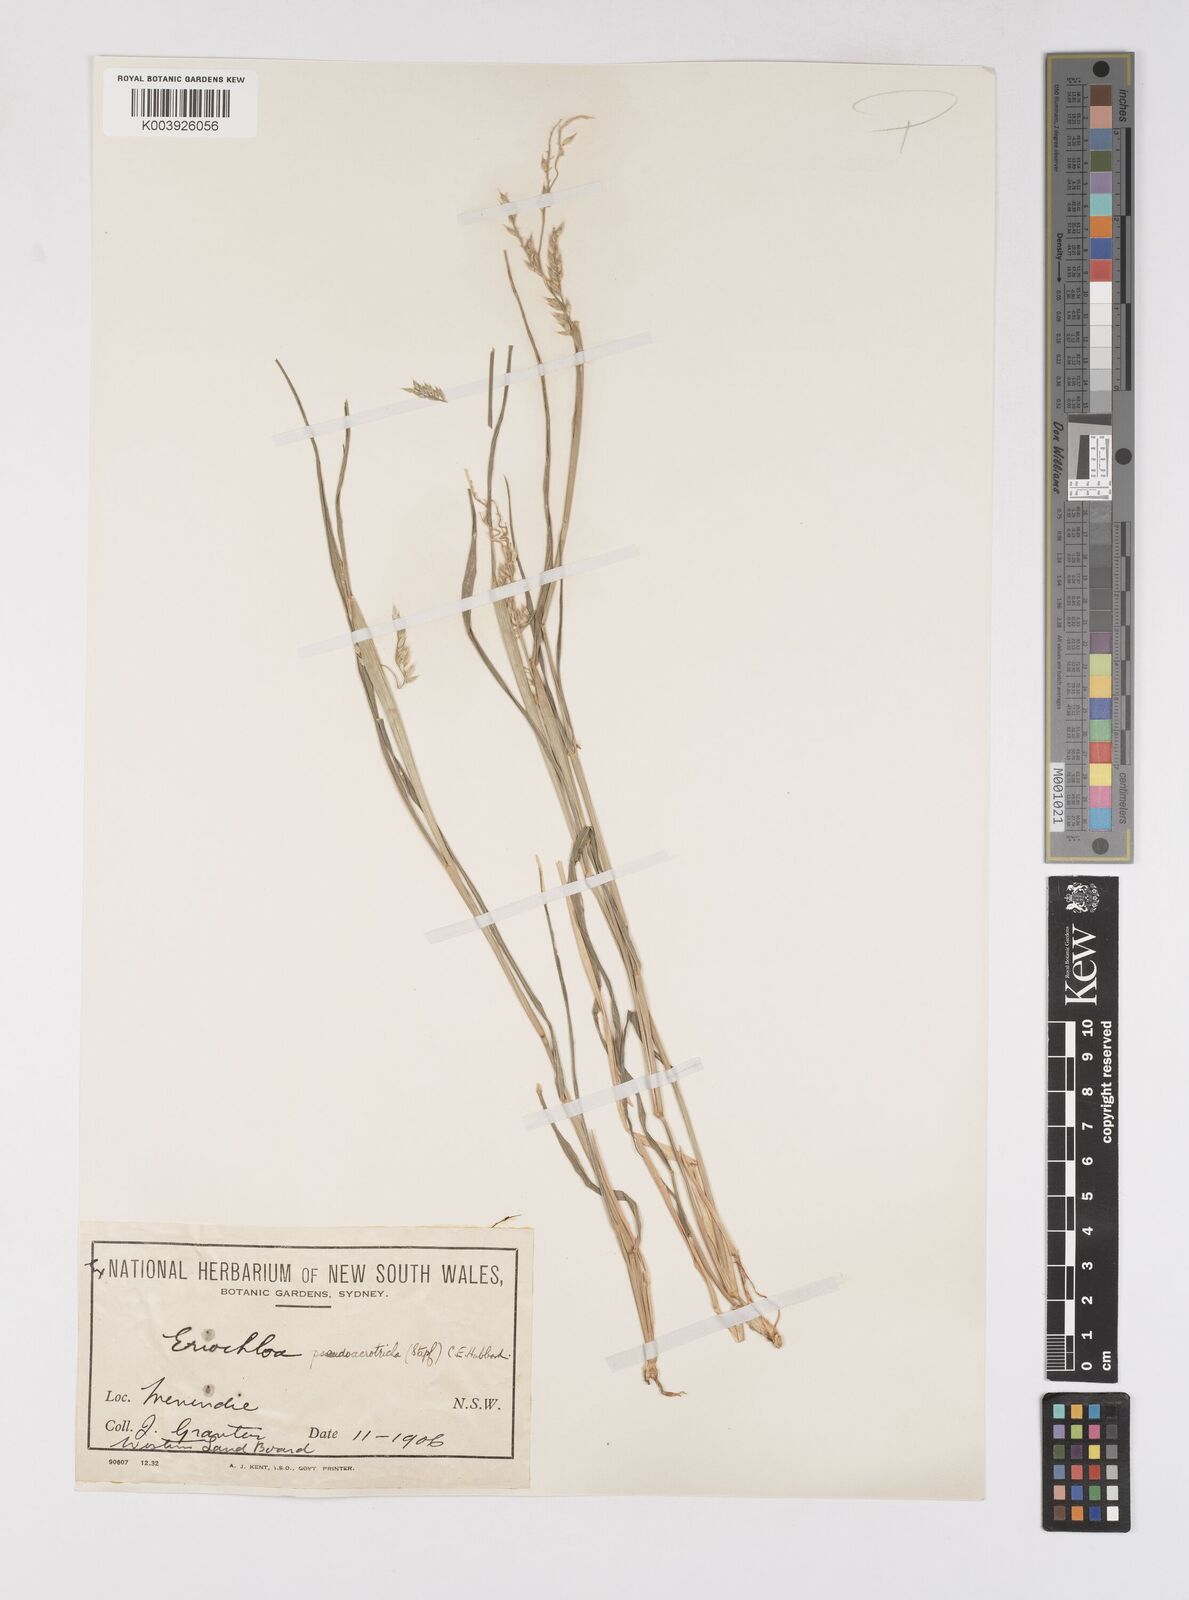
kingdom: Plantae
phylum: Tracheophyta
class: Liliopsida
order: Poales
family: Poaceae
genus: Eriochloa
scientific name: Eriochloa pseudoacrotricha
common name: Perennial cup-grass
